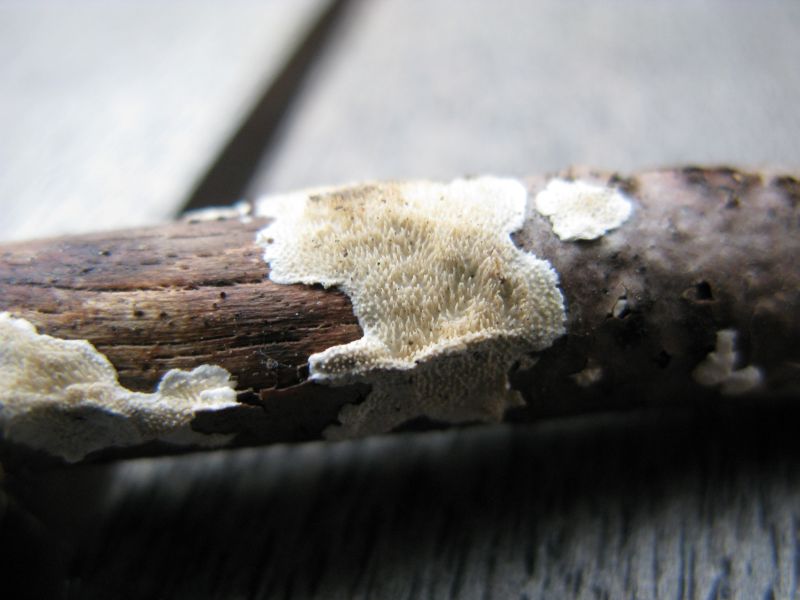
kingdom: Fungi
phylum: Basidiomycota
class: Agaricomycetes
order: Polyporales
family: Steccherinaceae
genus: Steccherinum
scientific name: Steccherinum ochraceum
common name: almindelig skønpig
